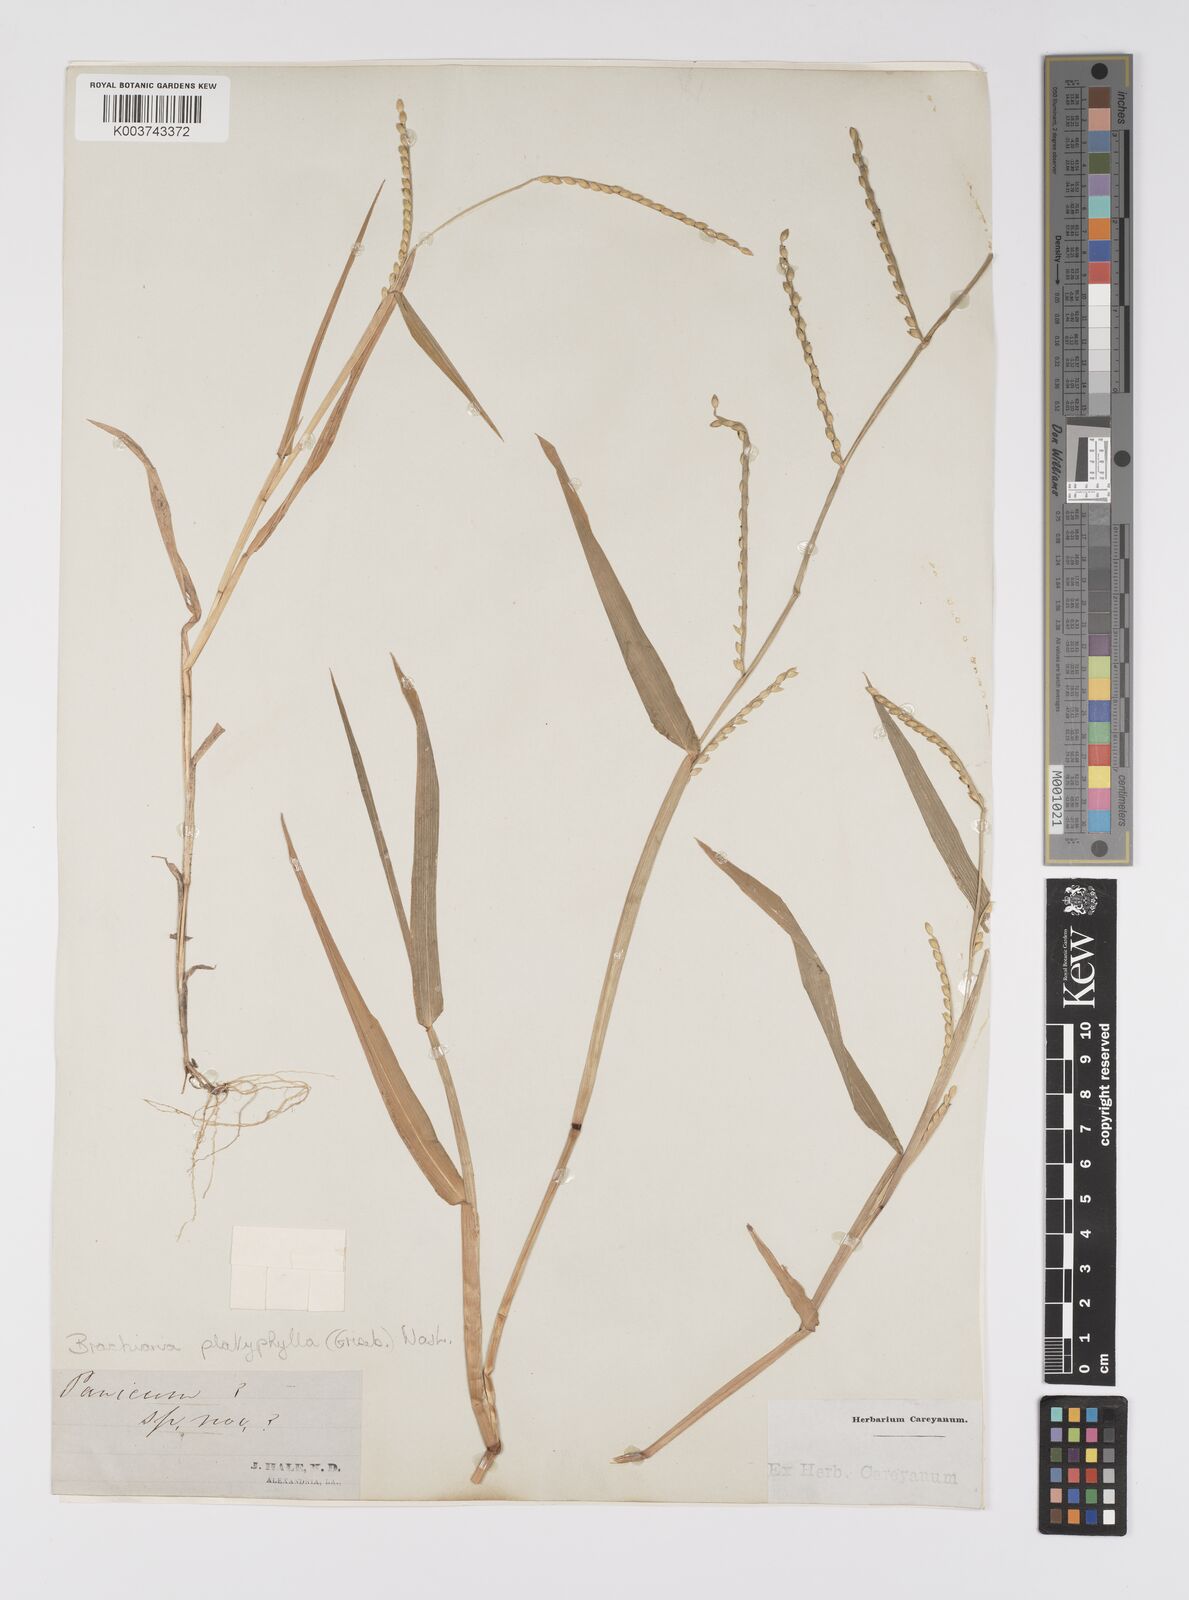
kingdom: Plantae
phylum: Tracheophyta
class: Liliopsida
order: Poales
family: Poaceae
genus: Urochloa
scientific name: Urochloa platyphylla
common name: White para grass
